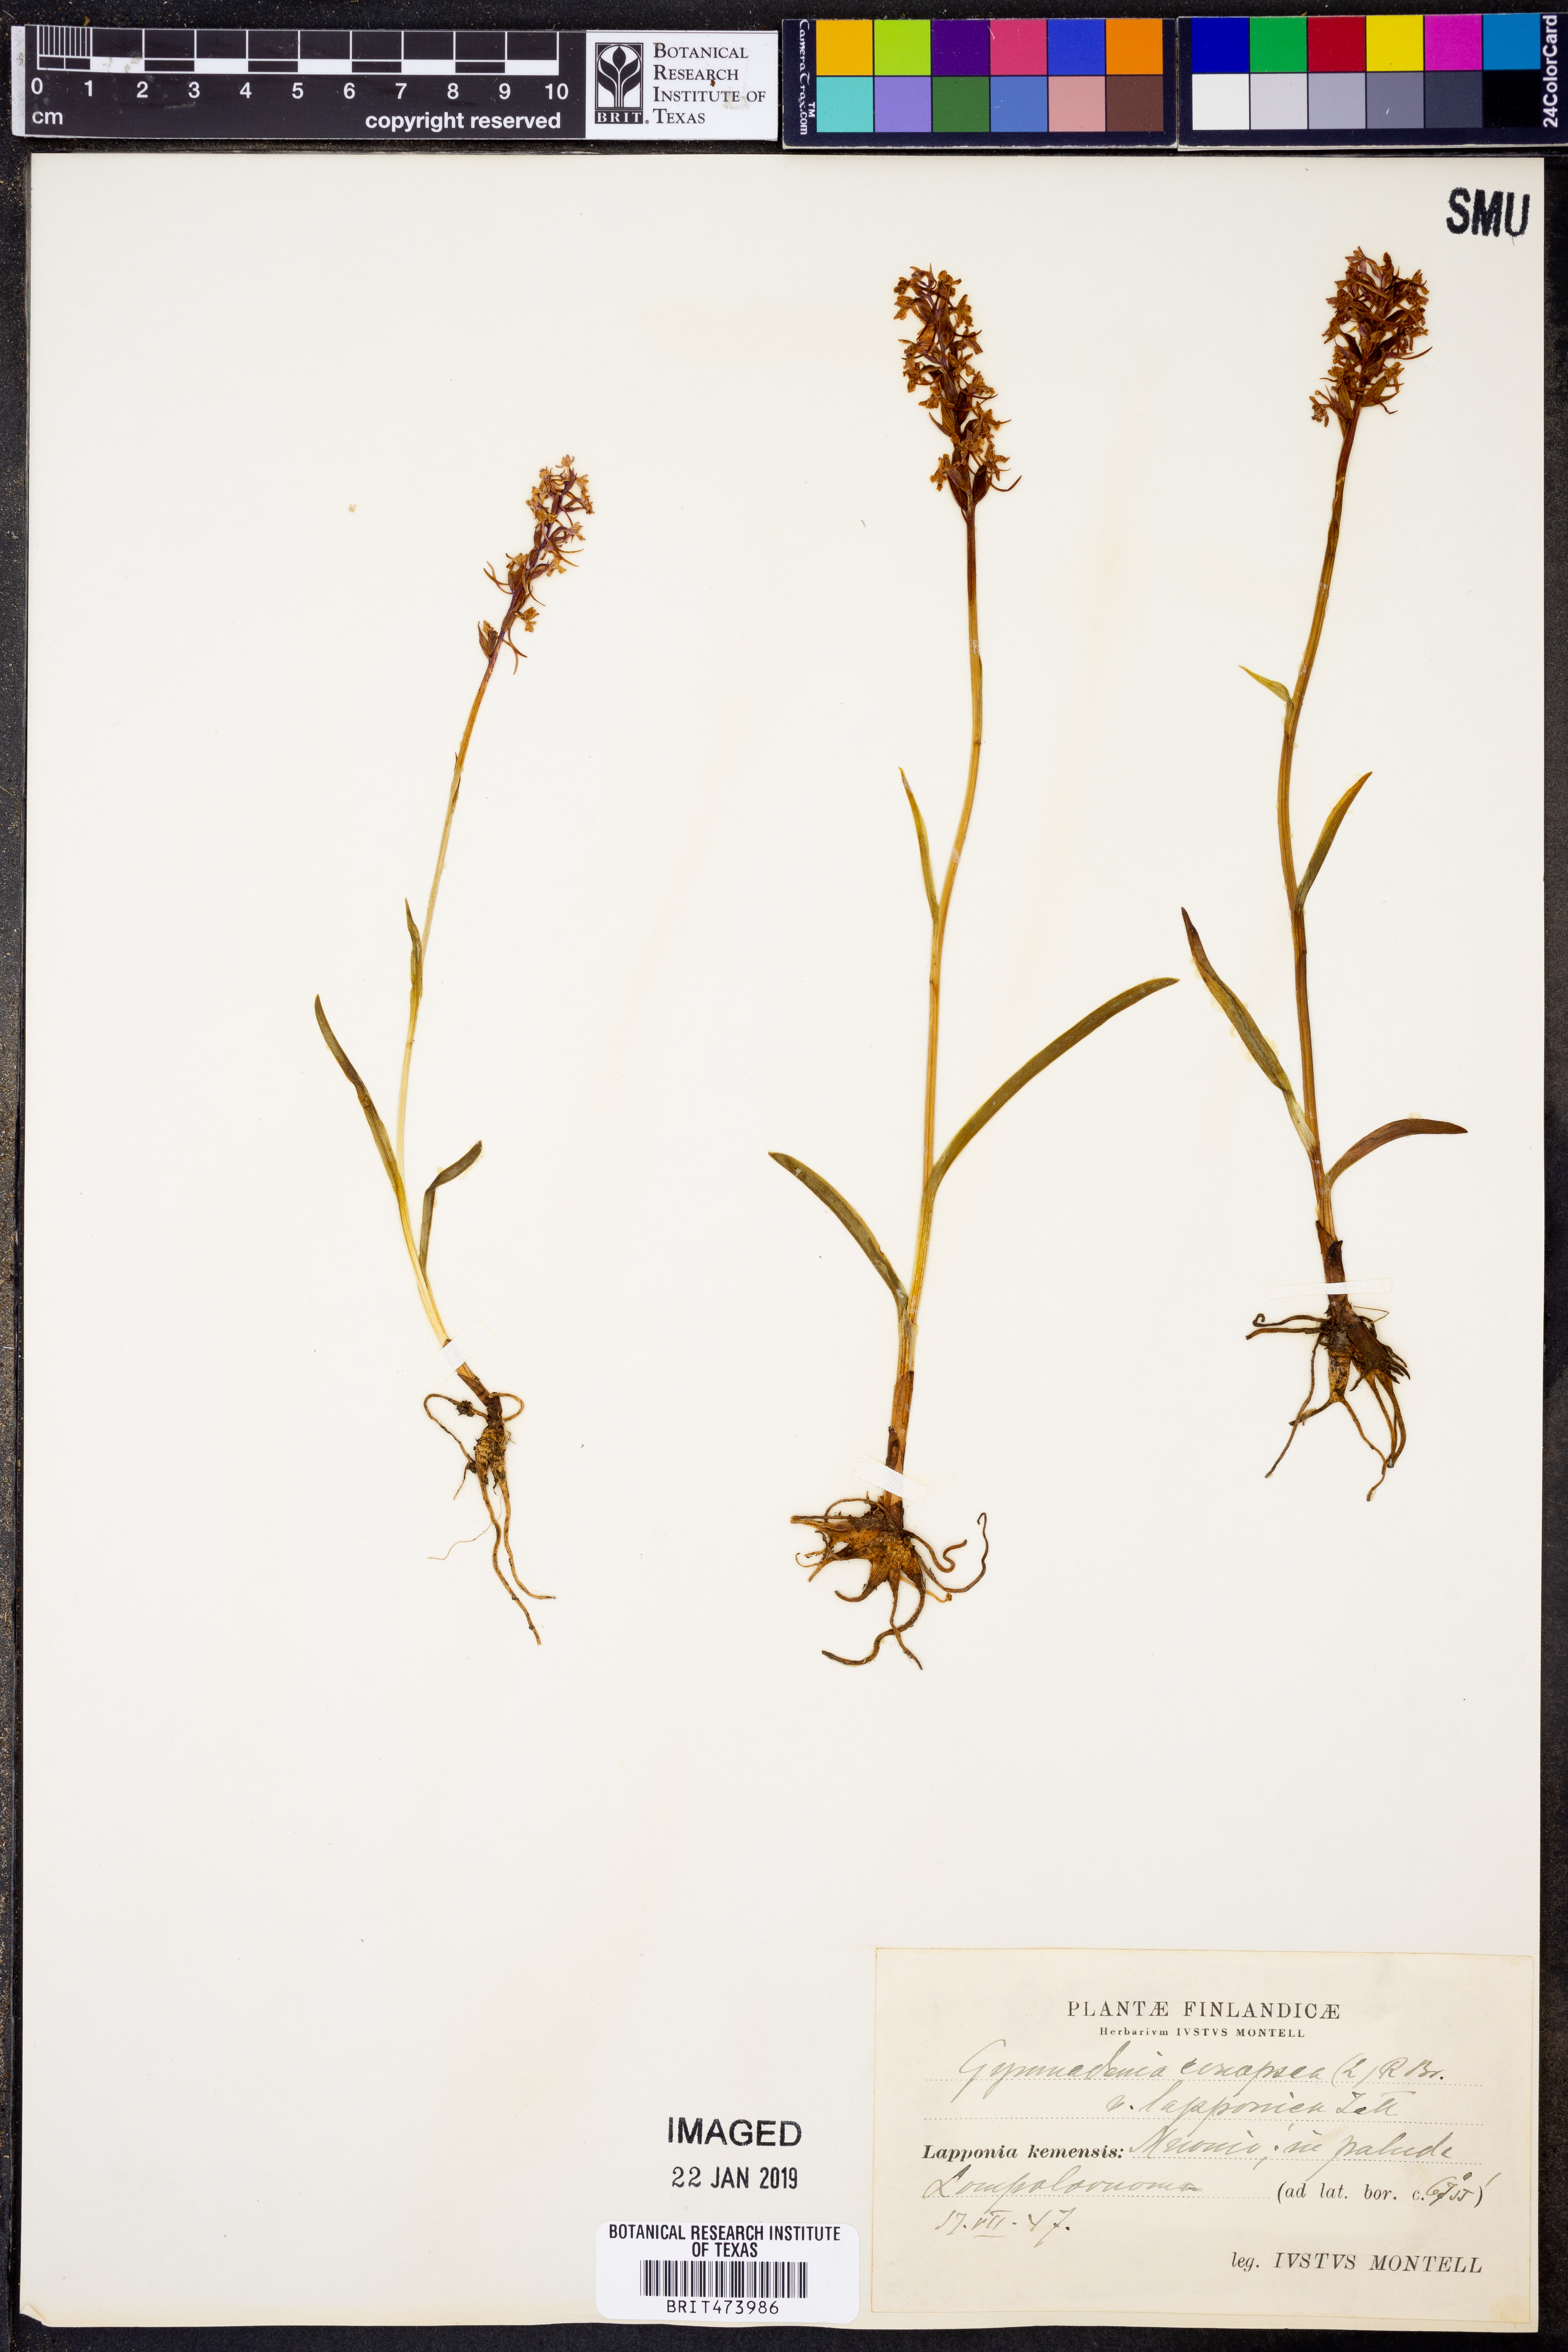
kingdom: Plantae
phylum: Tracheophyta
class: Liliopsida
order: Asparagales
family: Orchidaceae
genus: Gymnadenia
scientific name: Gymnadenia conopsea
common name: Fragrant orchid
